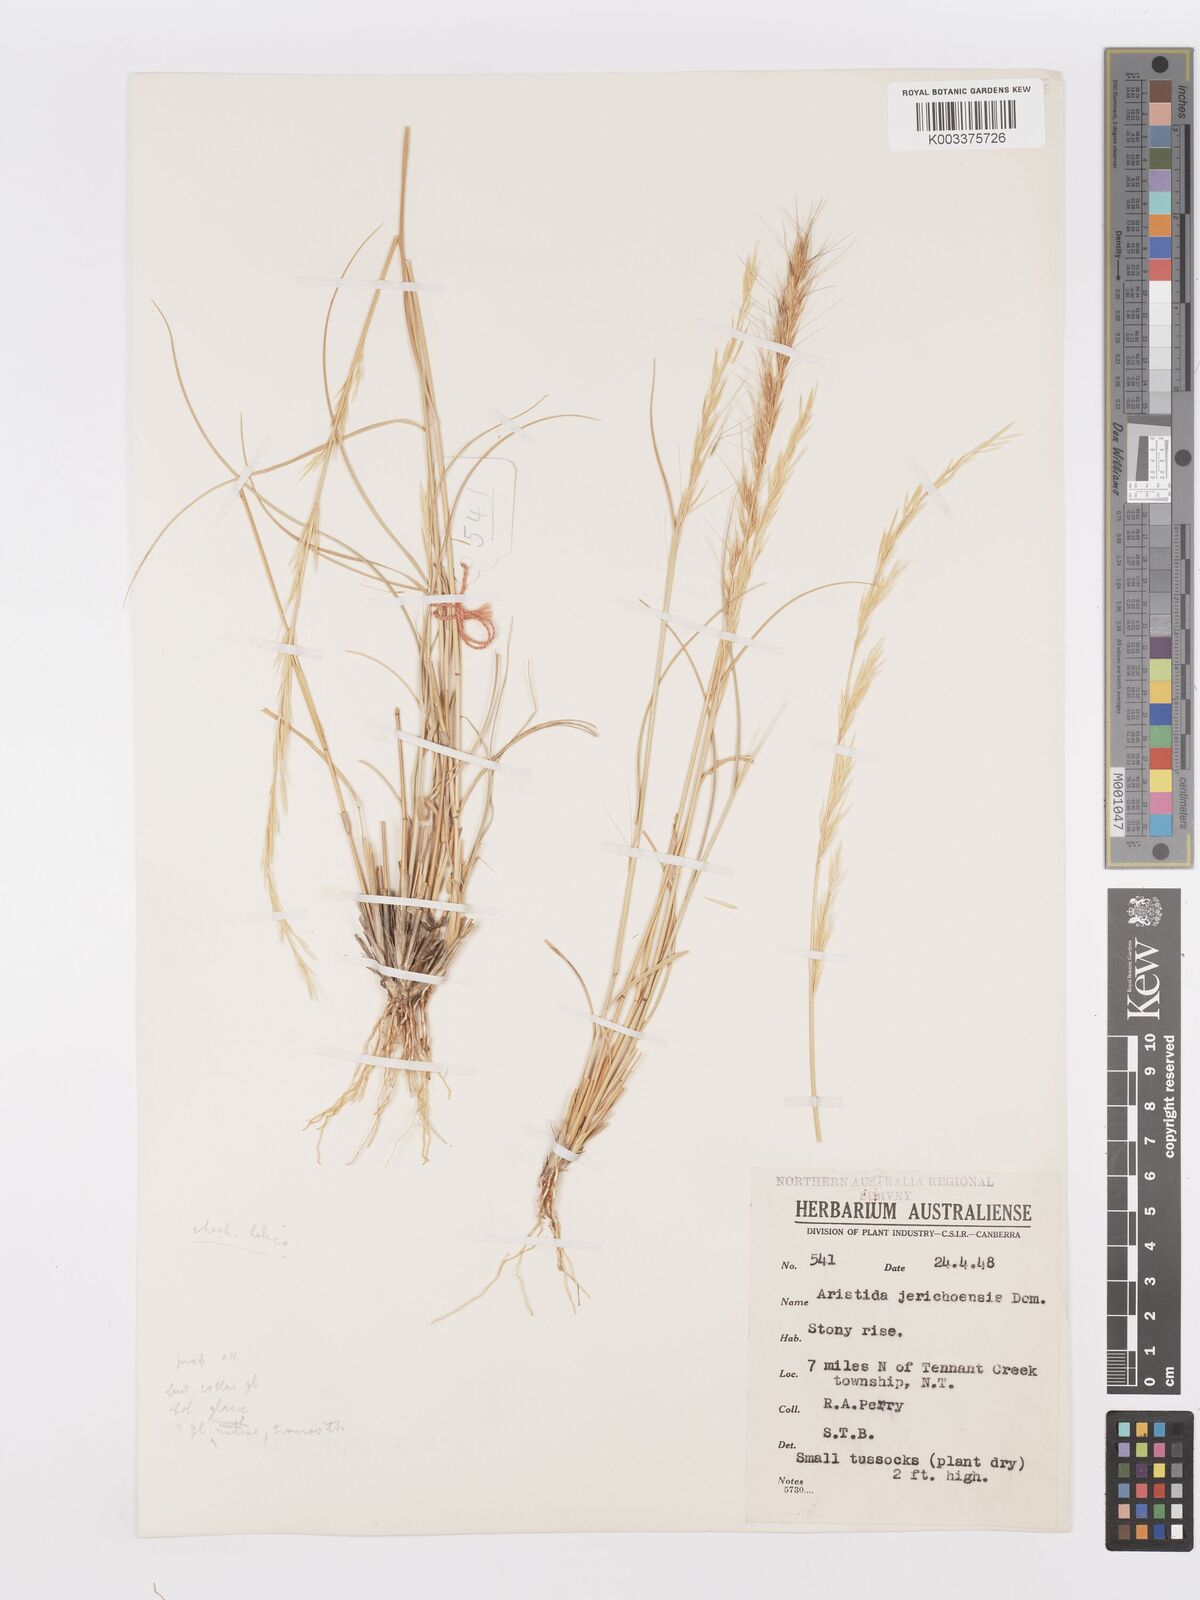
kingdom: Plantae
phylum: Tracheophyta
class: Liliopsida
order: Poales
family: Poaceae
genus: Aristida
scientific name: Aristida
